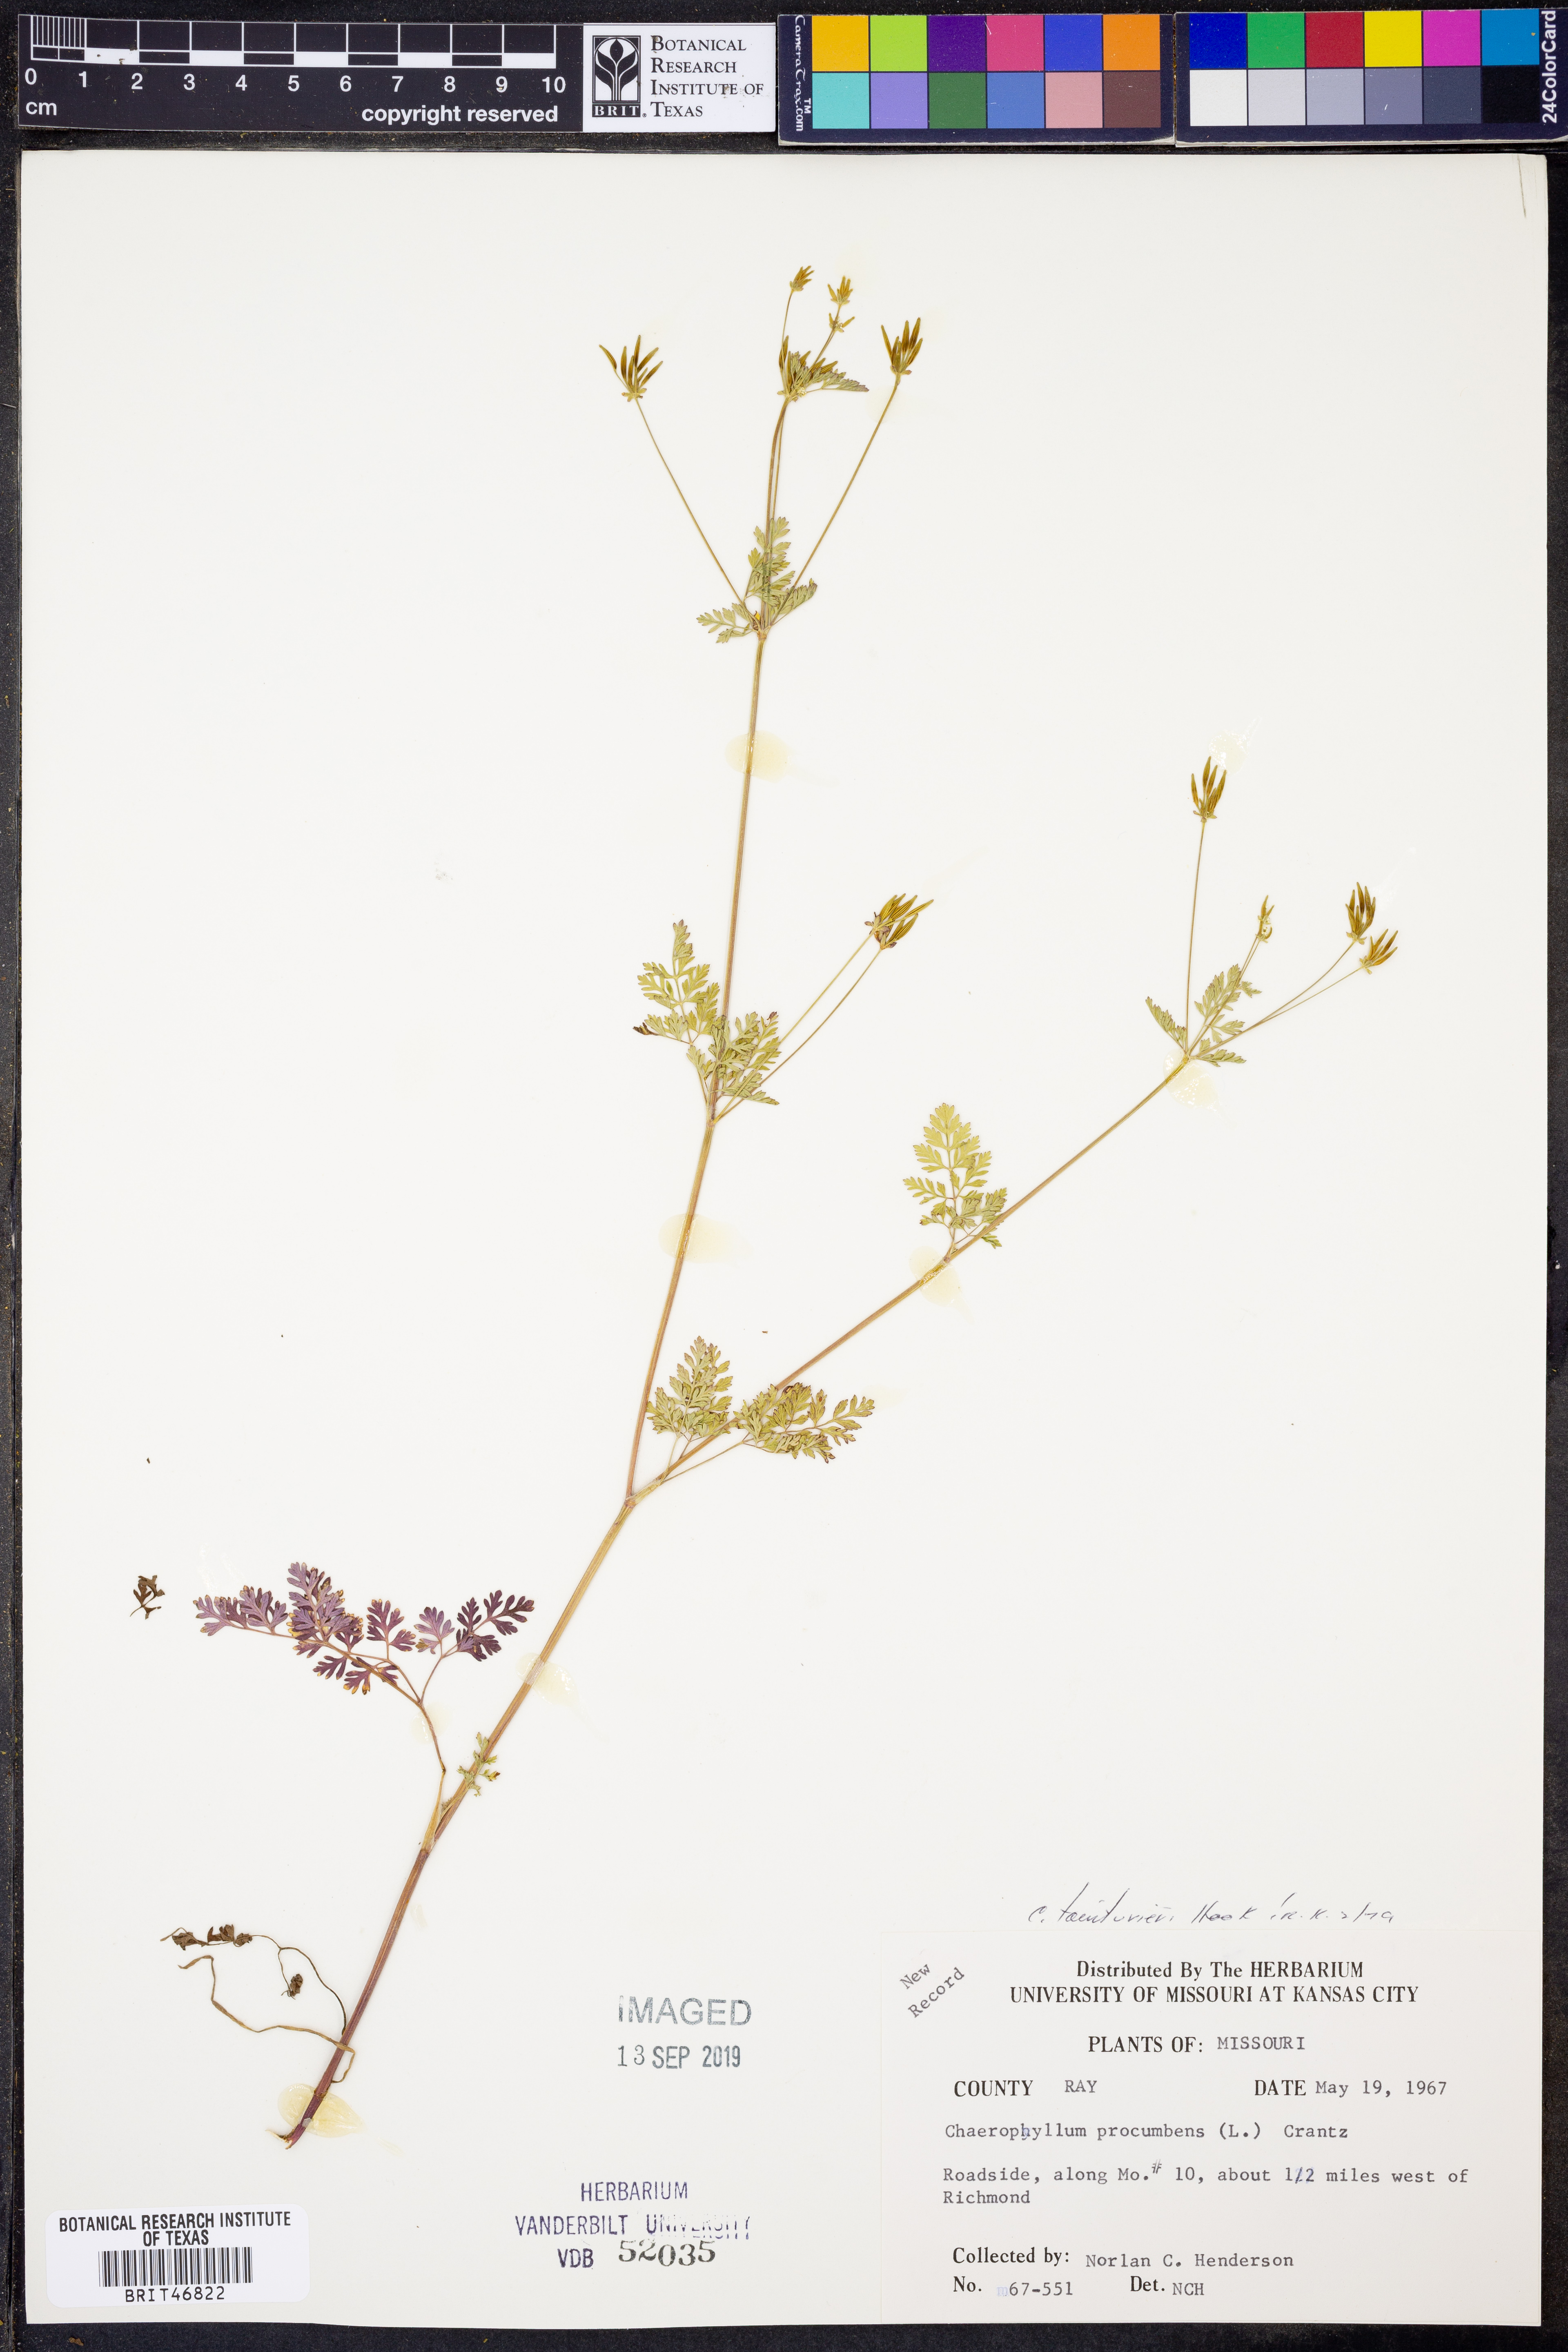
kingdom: Plantae
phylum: Tracheophyta
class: Magnoliopsida
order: Apiales
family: Apiaceae
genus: Chaerophyllum
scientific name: Chaerophyllum tainturieri
